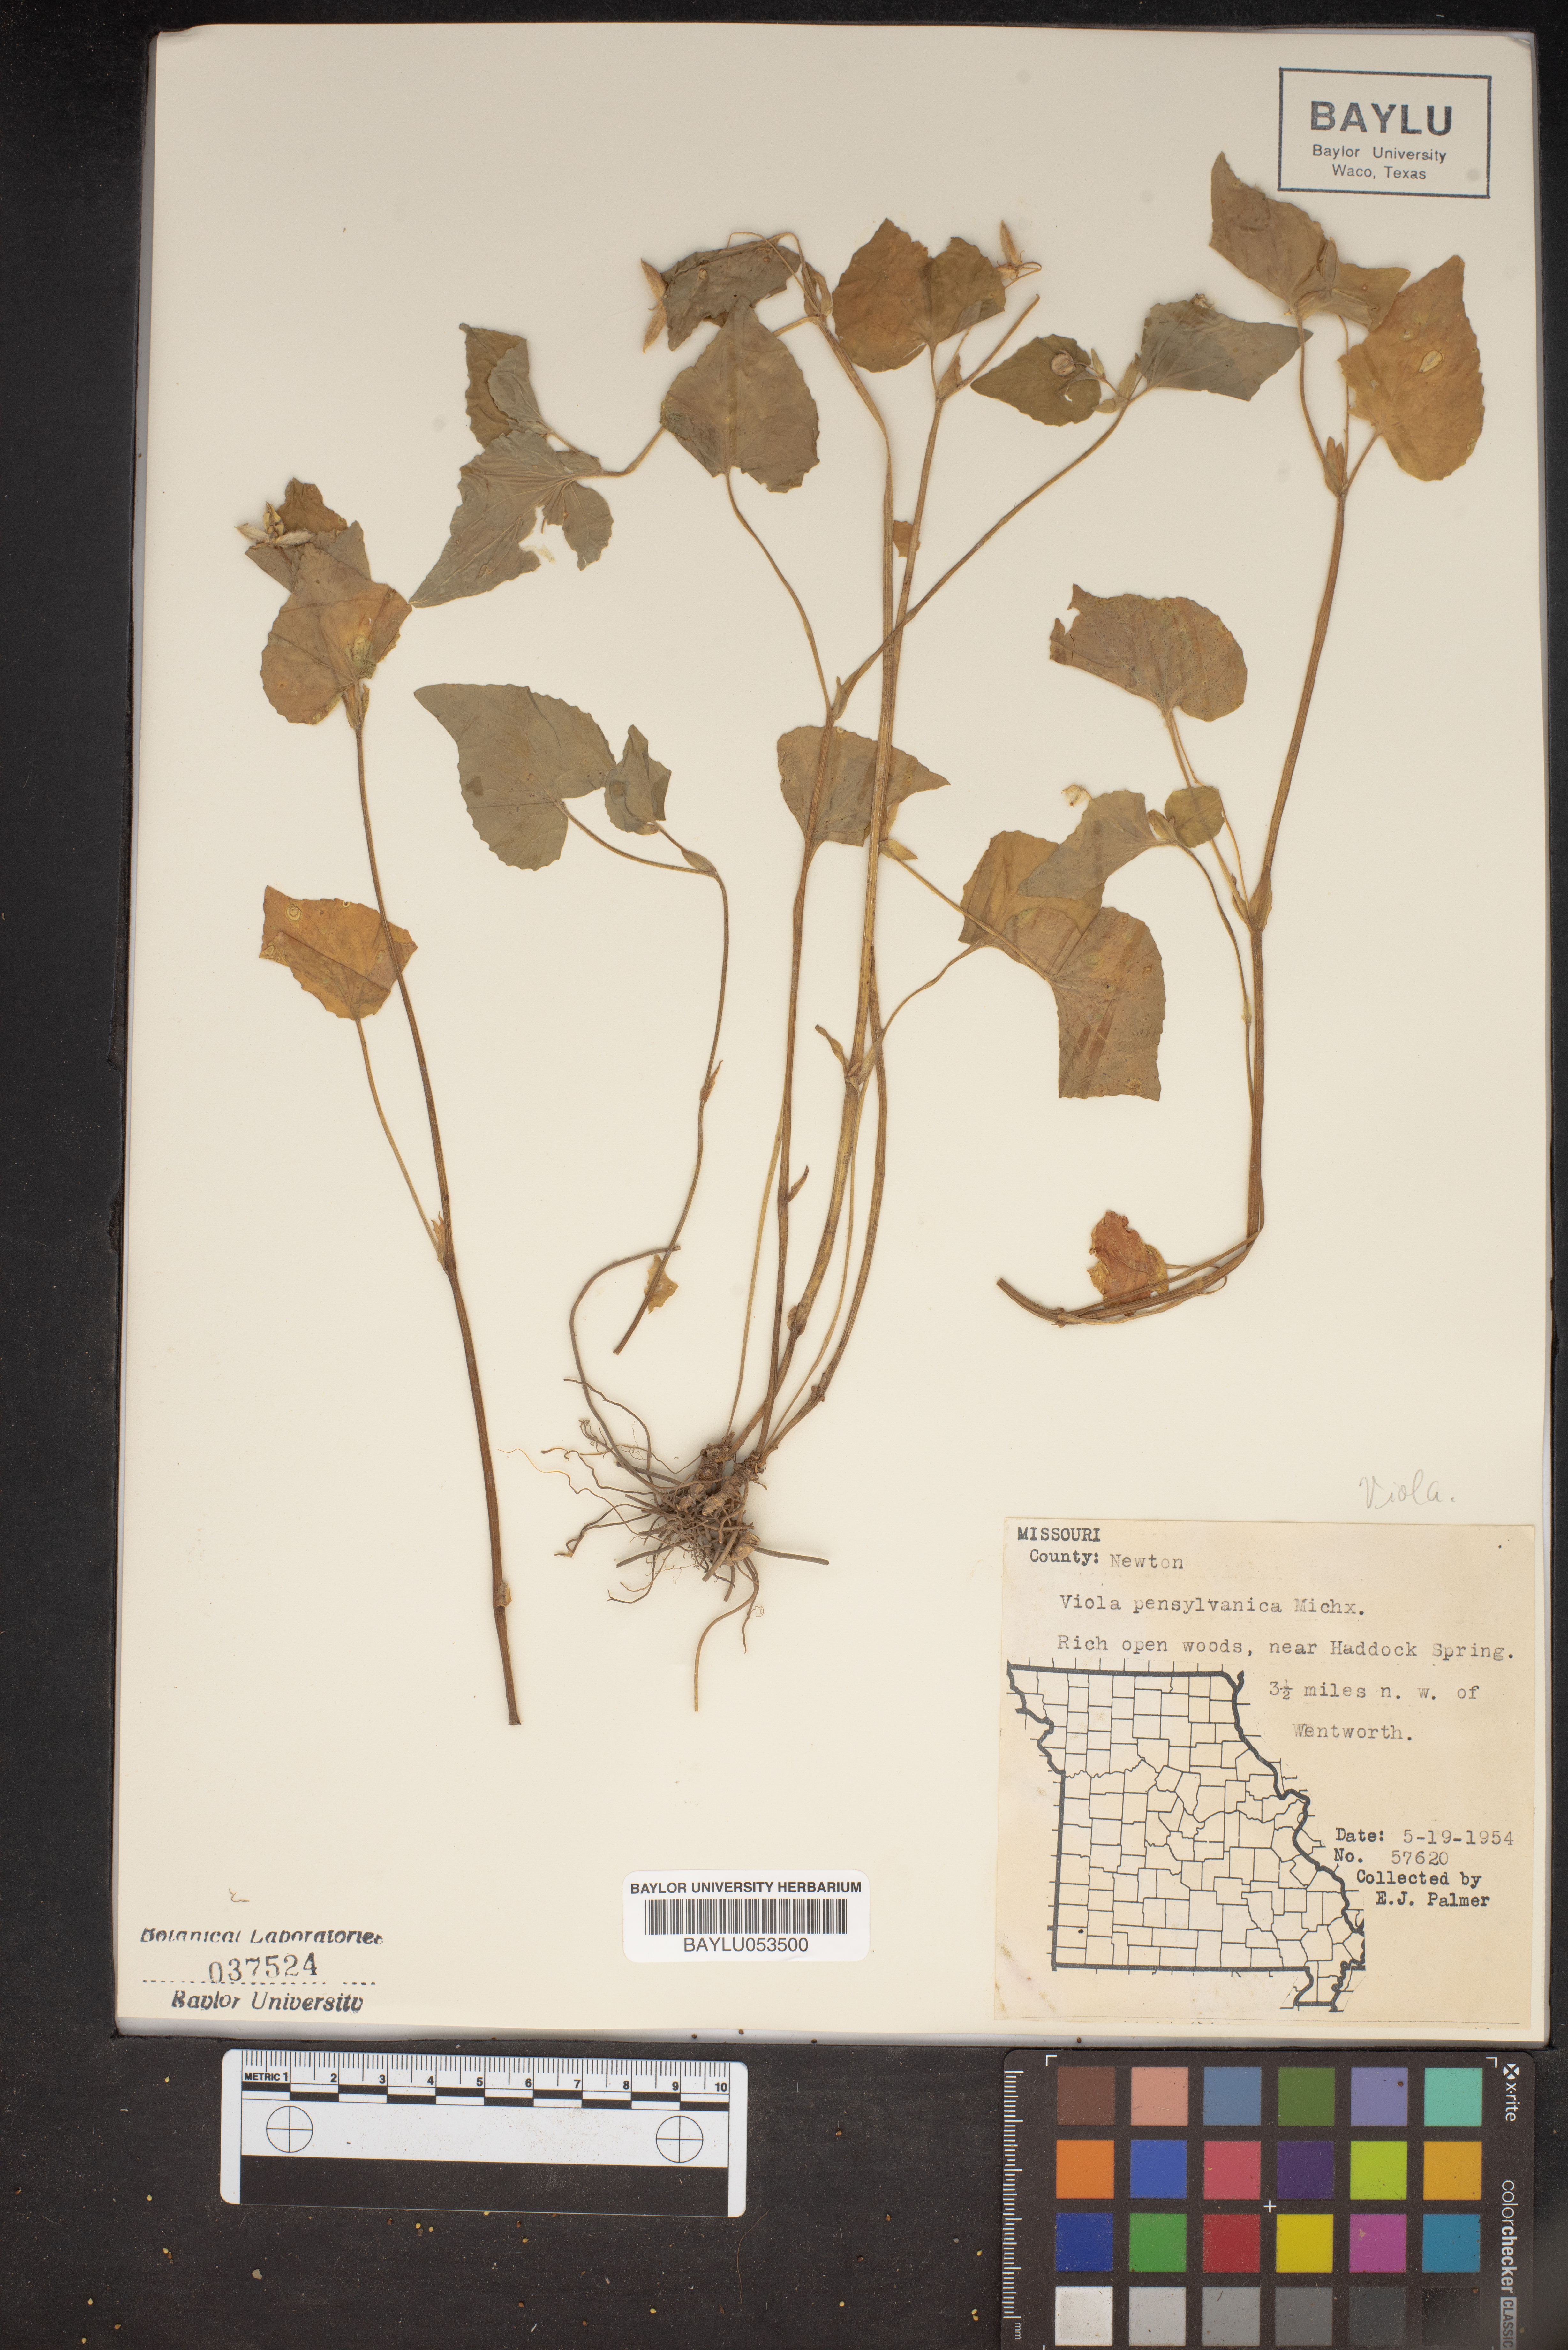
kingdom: Plantae
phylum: Tracheophyta
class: Magnoliopsida
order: Malpighiales
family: Violaceae
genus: Viola
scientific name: Viola pubescens
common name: Yellow forest violet
